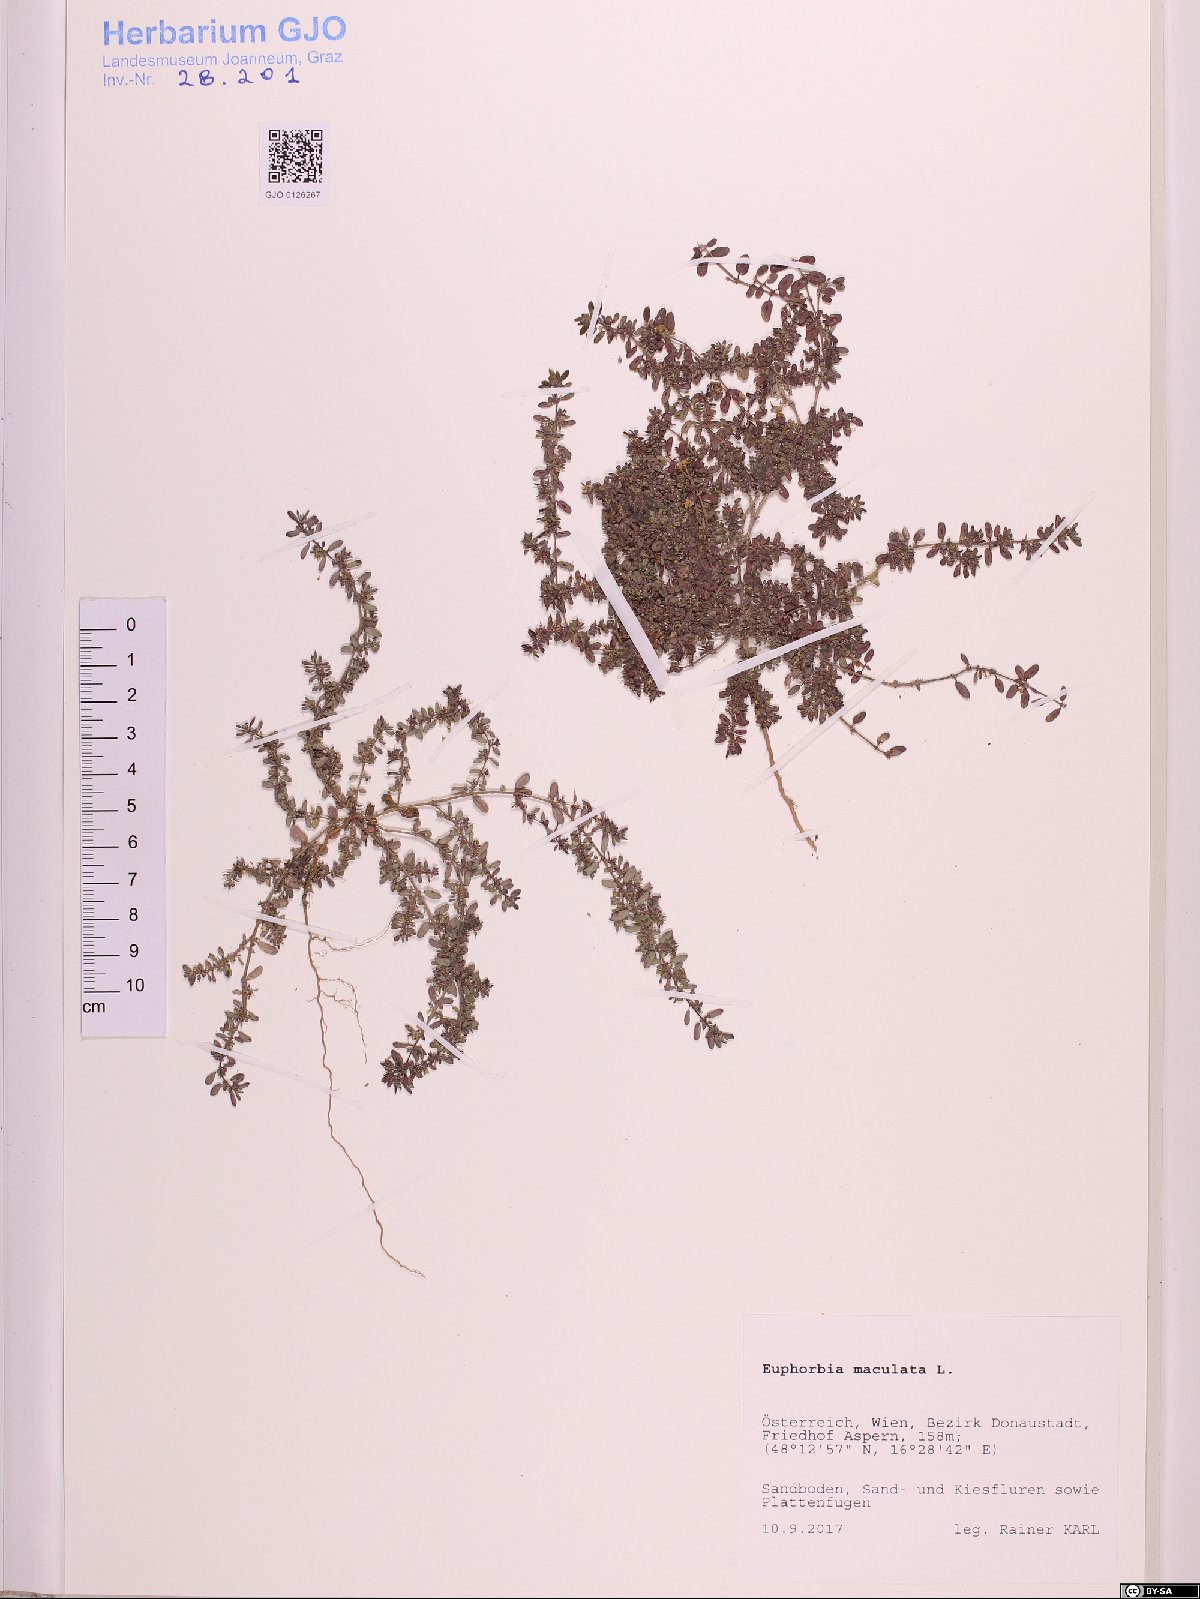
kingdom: Plantae
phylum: Tracheophyta
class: Magnoliopsida
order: Malpighiales
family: Euphorbiaceae
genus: Euphorbia
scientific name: Euphorbia maculata
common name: Spotted spurge
